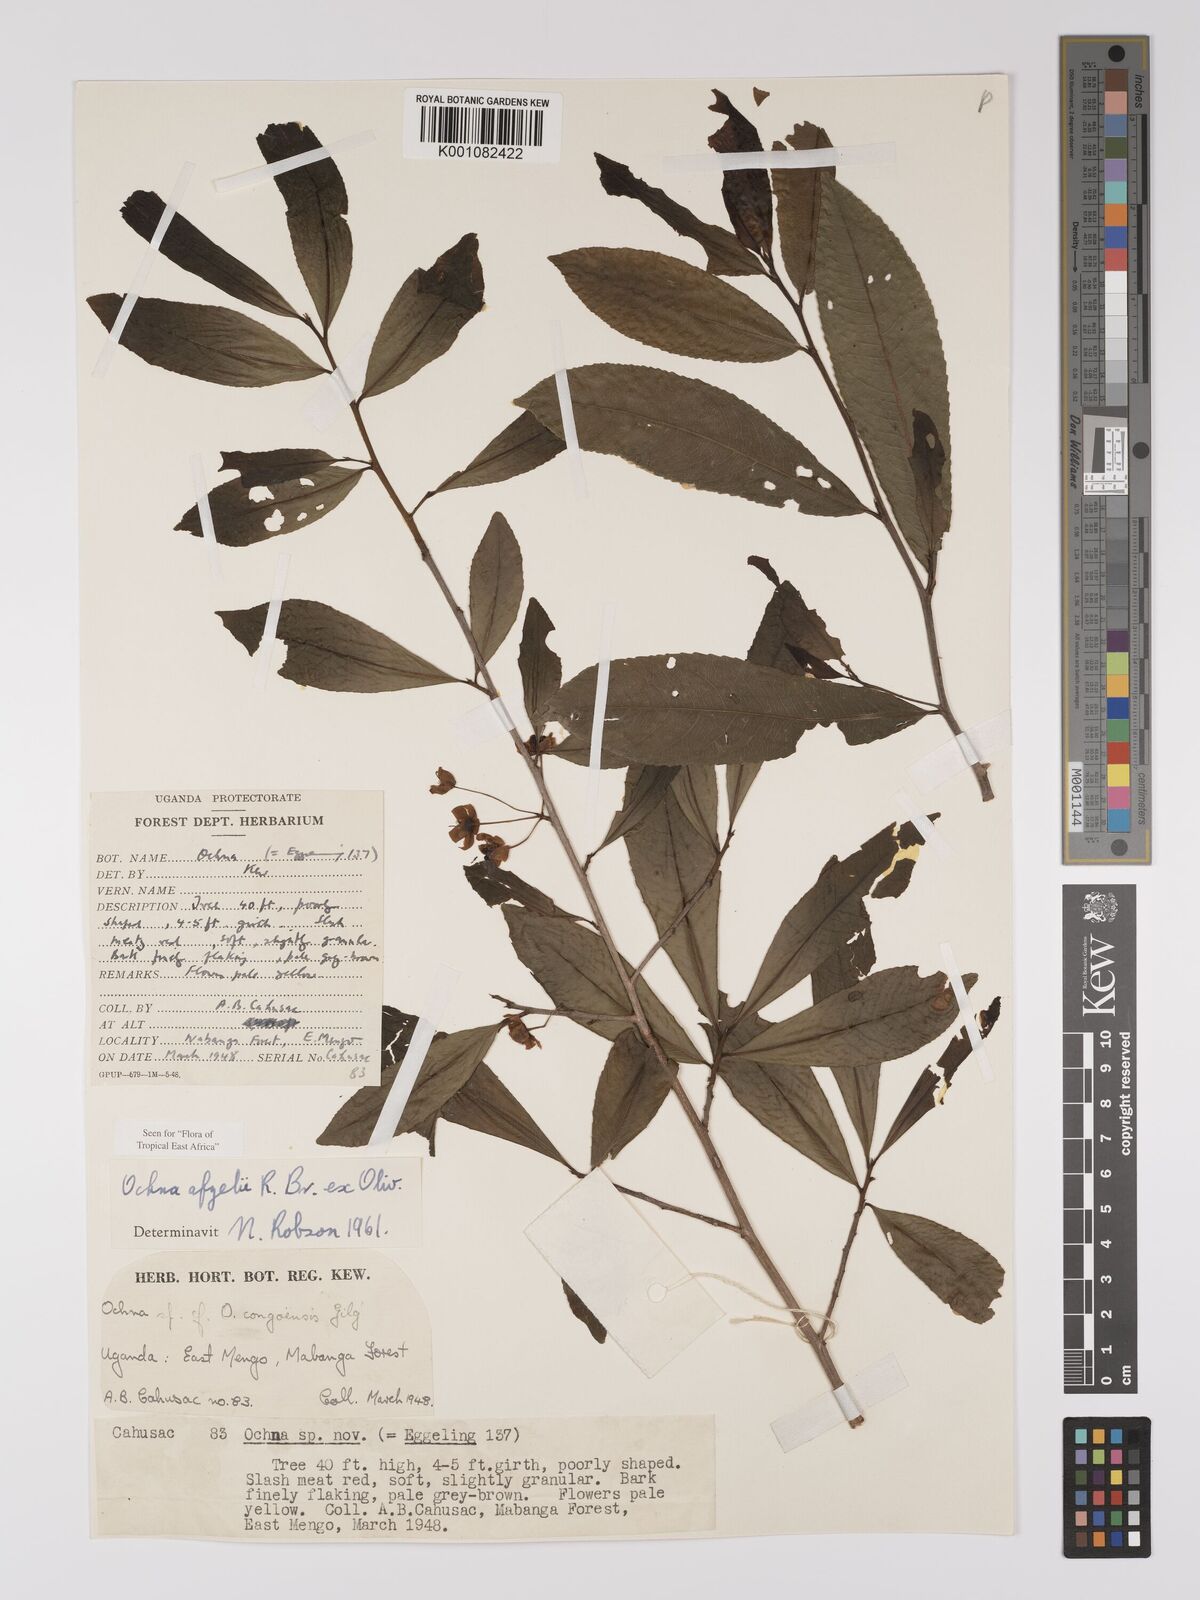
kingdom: Plantae
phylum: Tracheophyta
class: Magnoliopsida
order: Malpighiales
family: Ochnaceae
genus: Ochna
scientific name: Ochna afzelii
